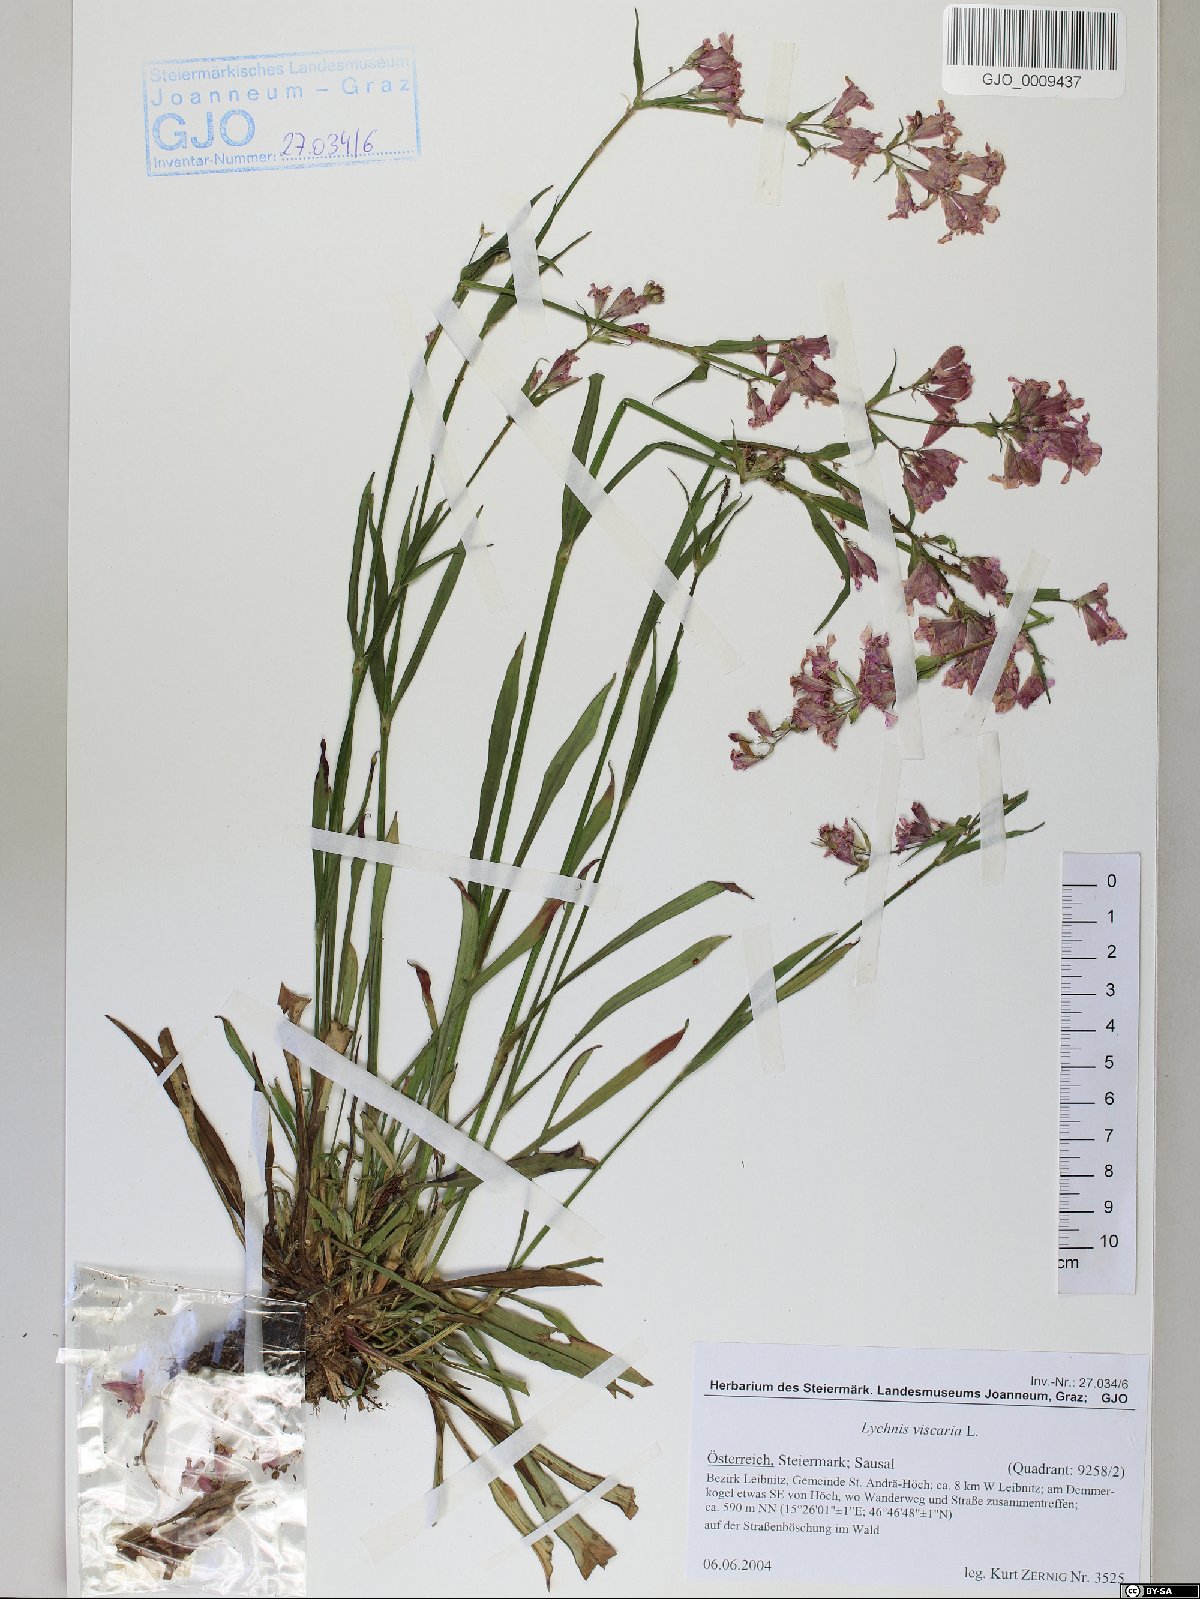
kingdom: Plantae
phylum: Tracheophyta
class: Magnoliopsida
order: Caryophyllales
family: Caryophyllaceae
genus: Viscaria
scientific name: Viscaria vulgaris
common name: Clammy campion
